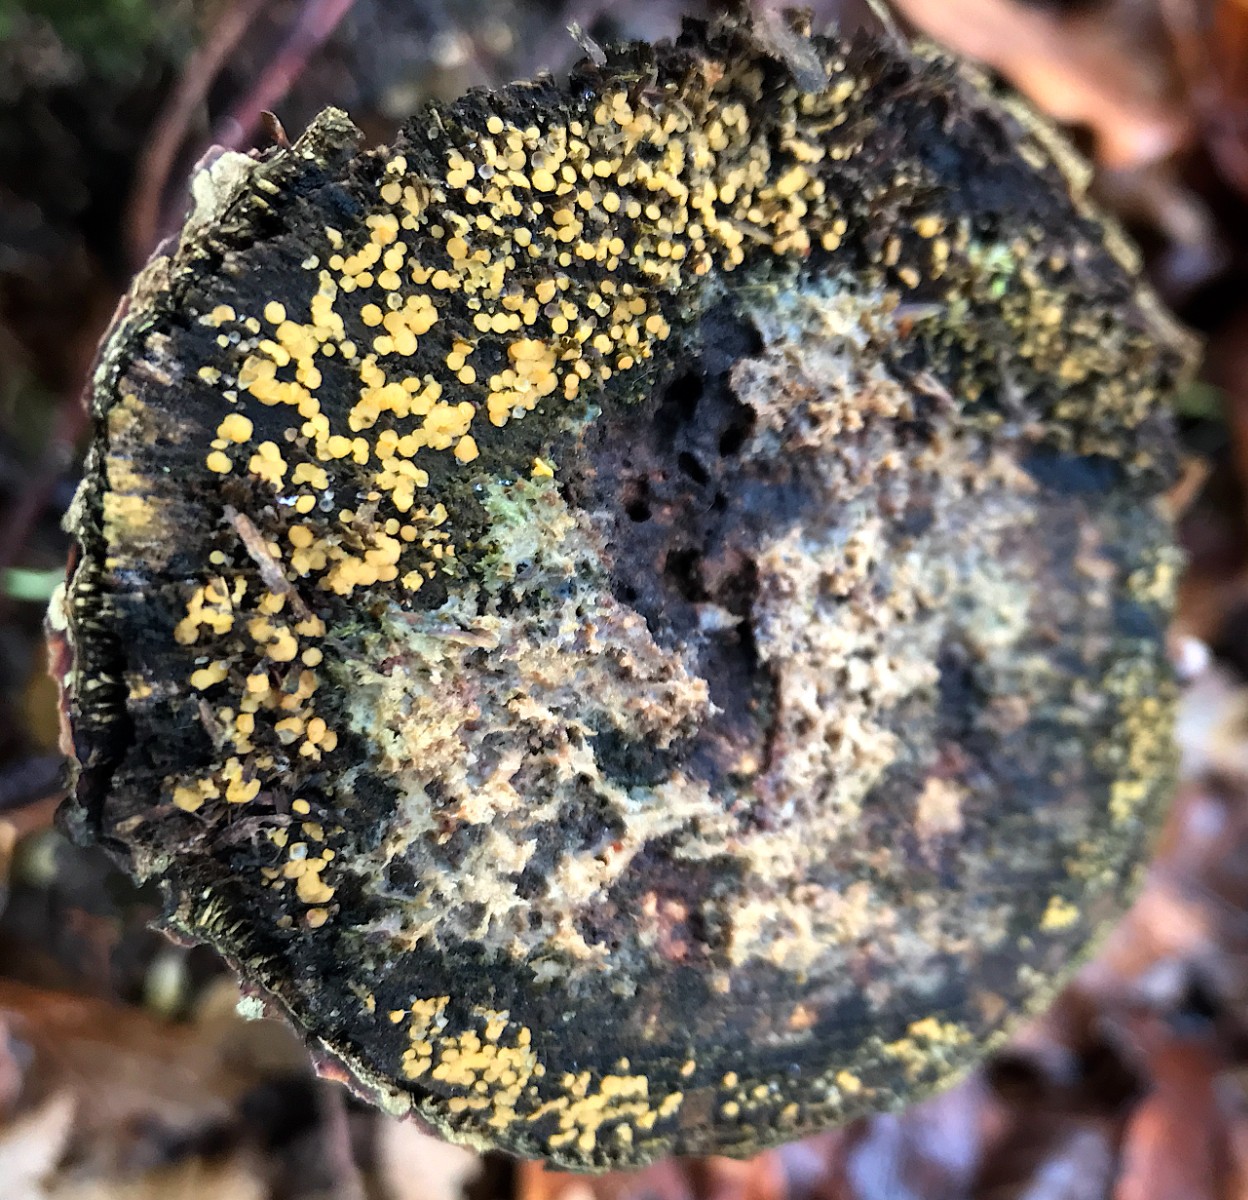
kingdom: Fungi
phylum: Ascomycota
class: Leotiomycetes
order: Helotiales
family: Pezizellaceae
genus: Calycina
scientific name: Calycina
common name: gulskive
